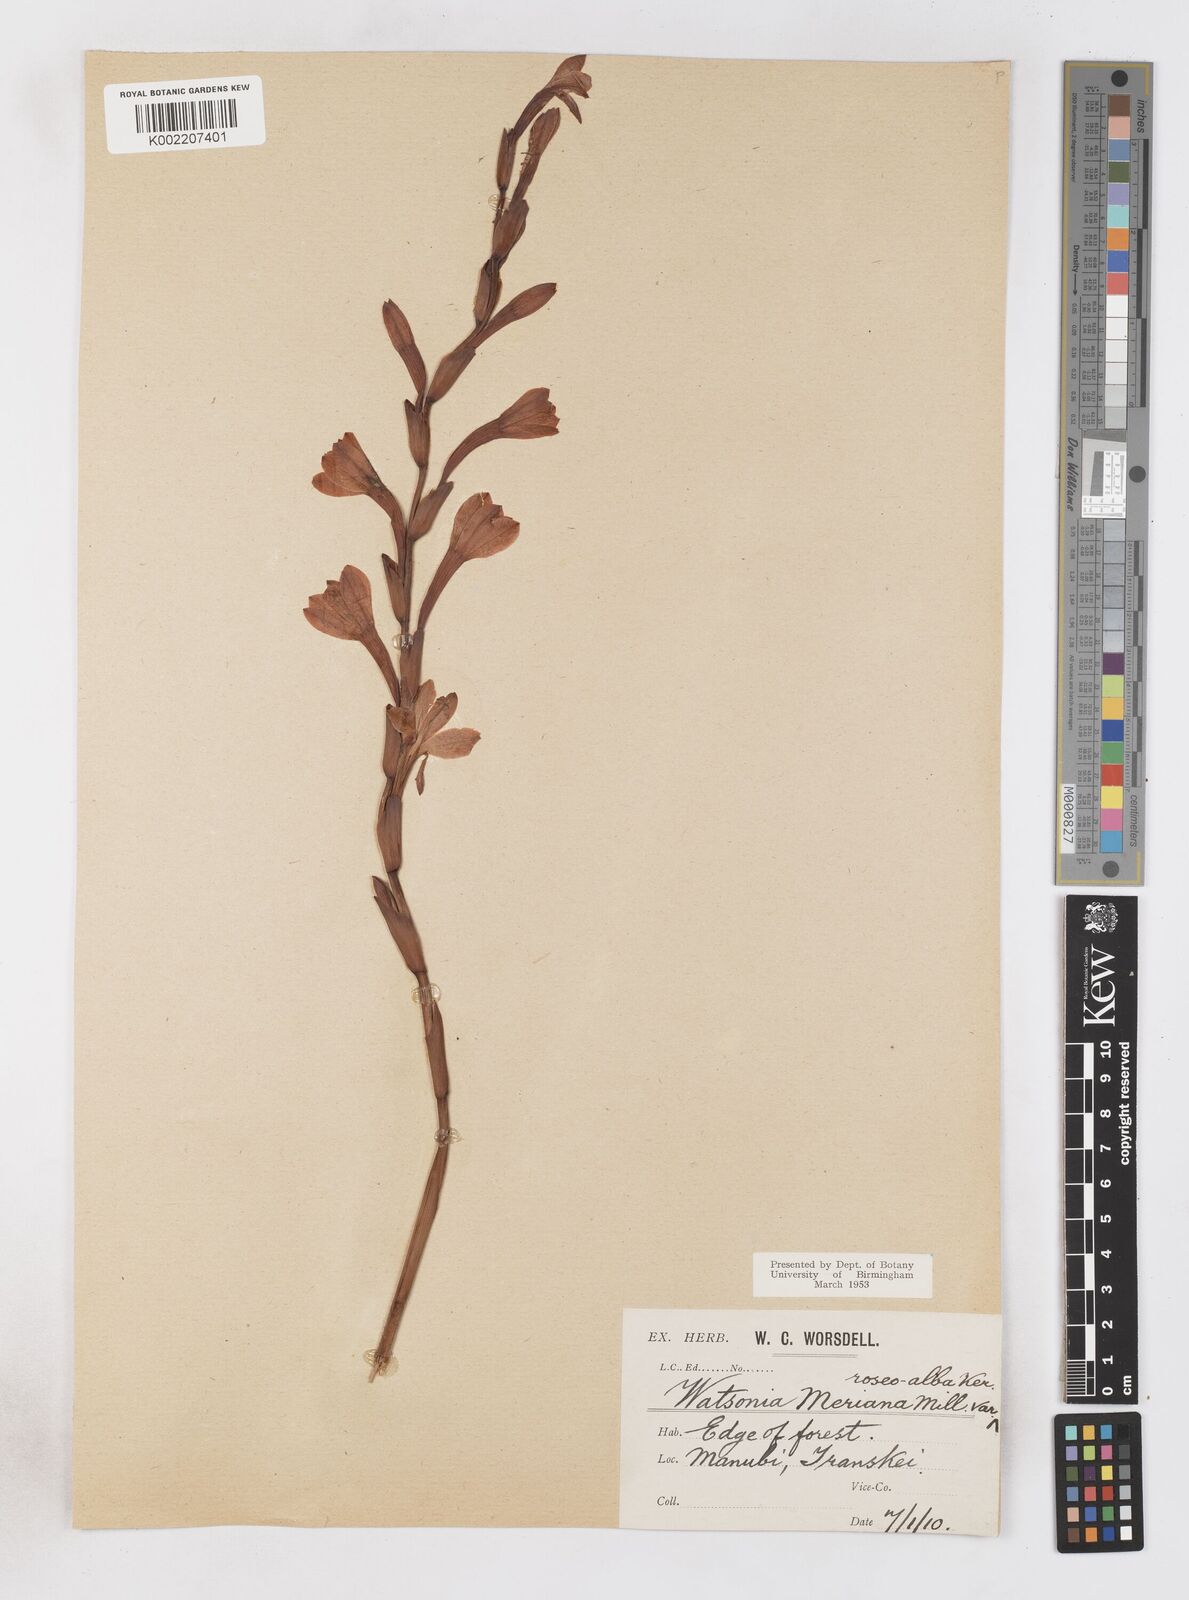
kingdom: Plantae
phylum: Tracheophyta
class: Liliopsida
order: Asparagales
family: Iridaceae
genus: Watsonia
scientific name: Watsonia pillansii
